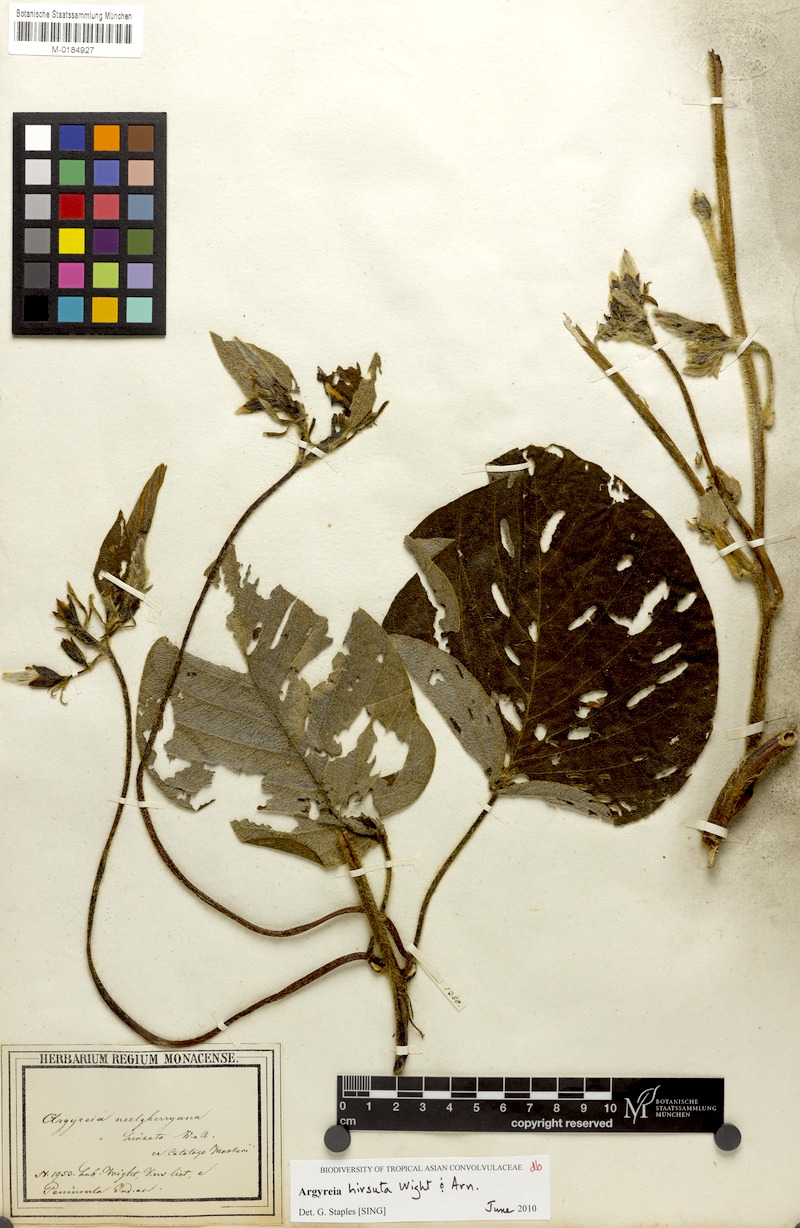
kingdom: Plantae
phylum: Tracheophyta
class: Magnoliopsida
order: Solanales
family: Convolvulaceae
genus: Argyreia
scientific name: Argyreia hirsuta
